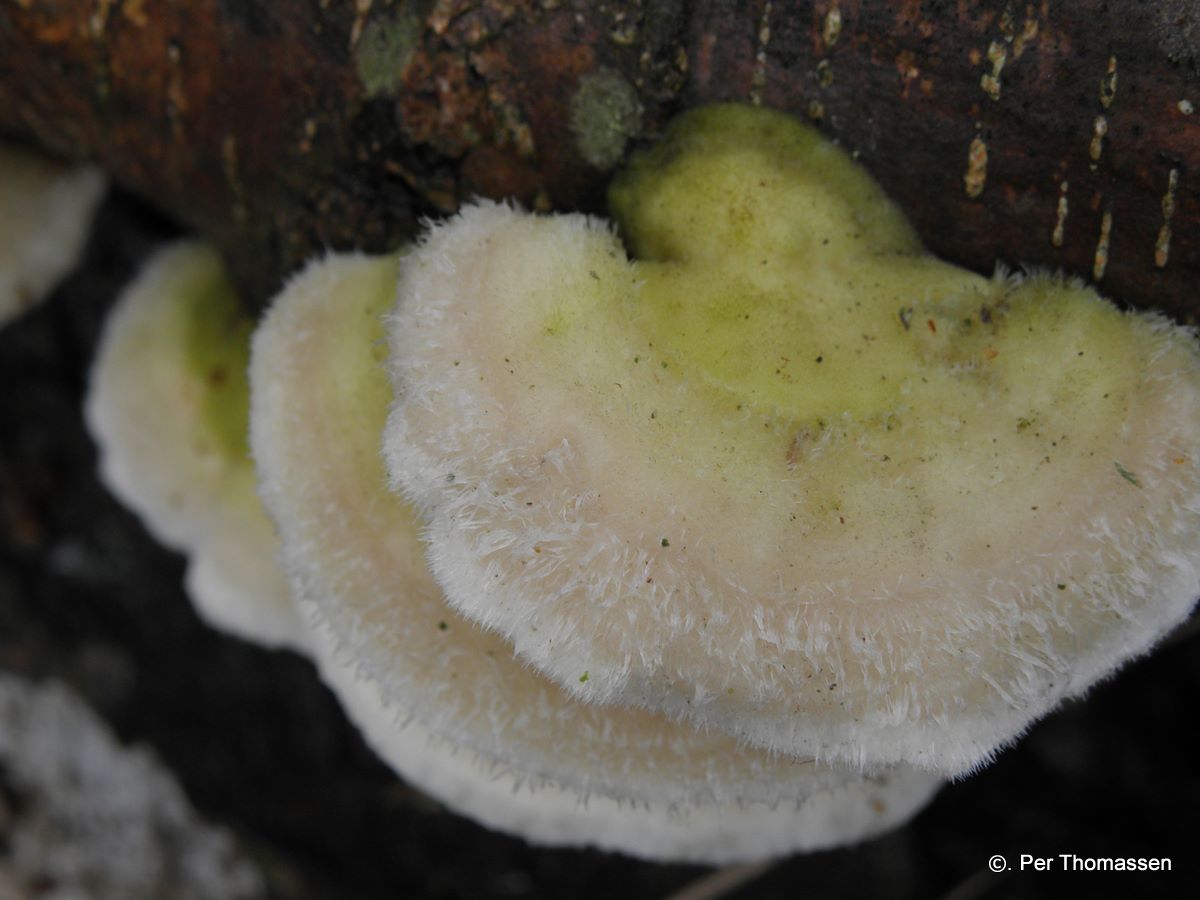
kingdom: Fungi
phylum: Basidiomycota
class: Agaricomycetes
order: Polyporales
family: Polyporaceae
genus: Trametes
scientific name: Trametes hirsuta
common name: håret læderporesvamp
